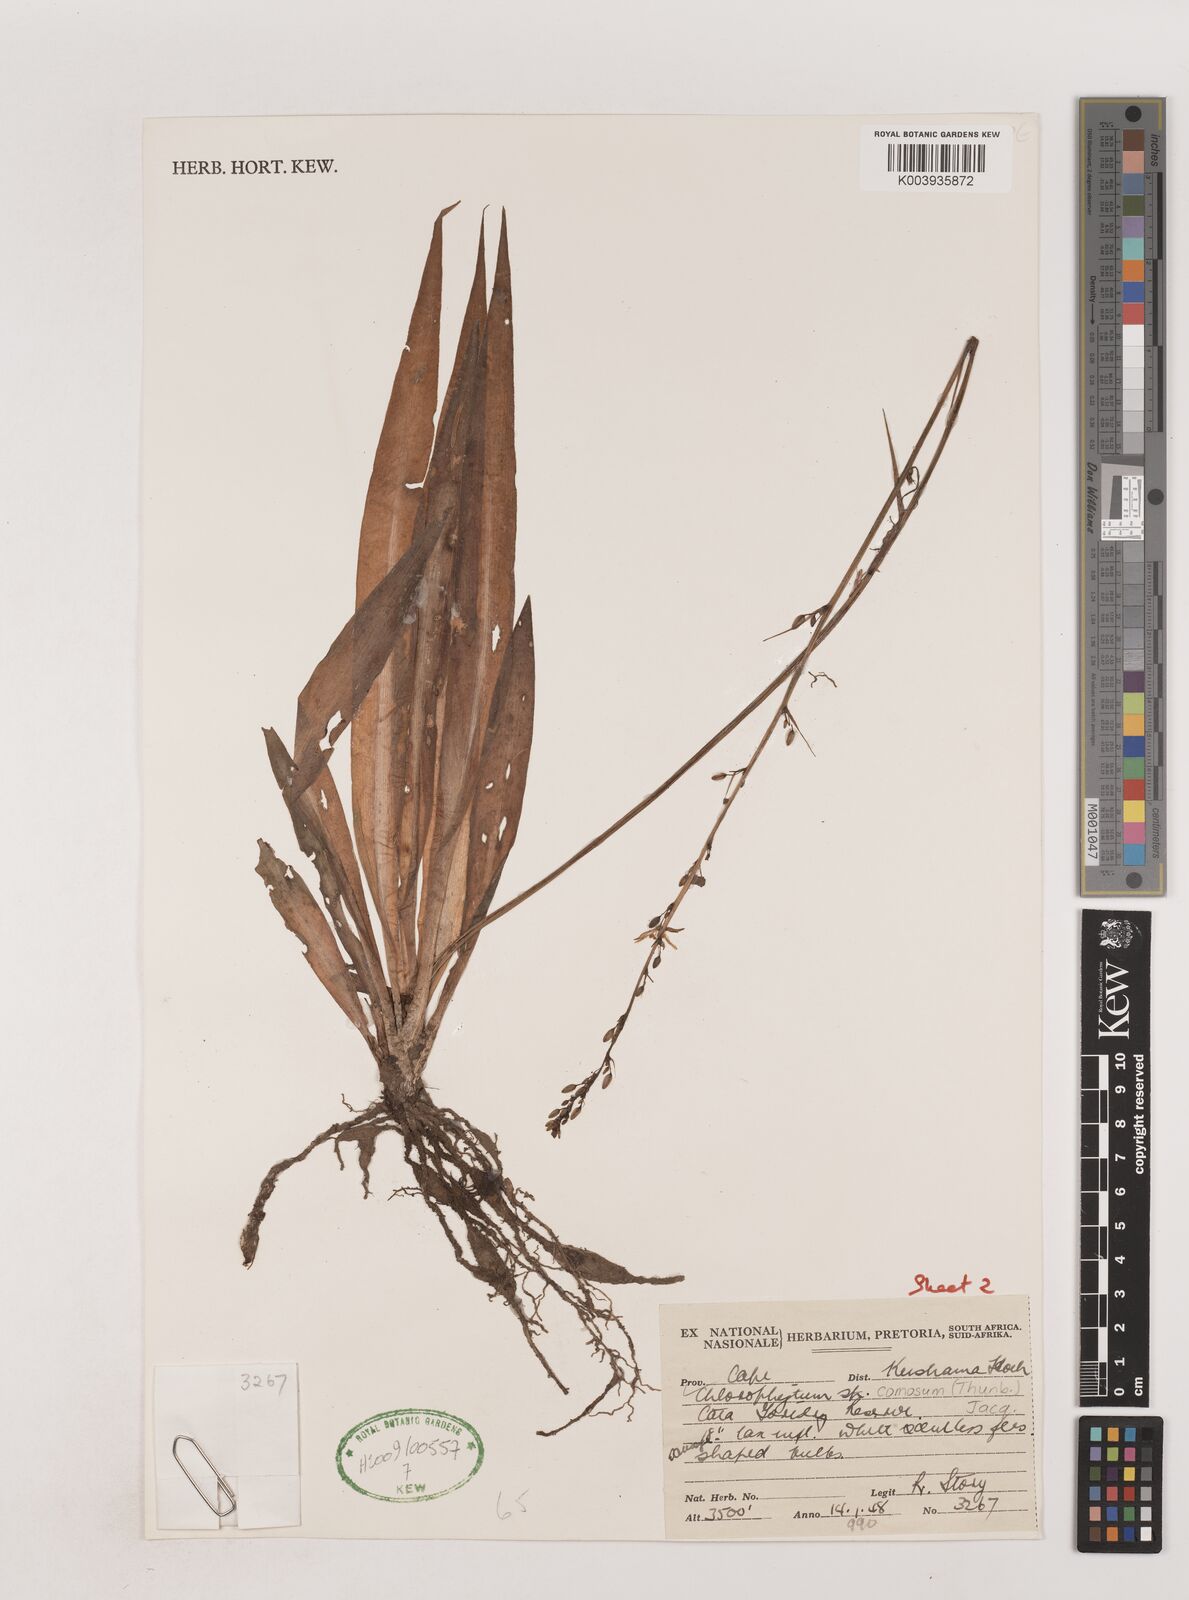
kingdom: Plantae
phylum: Tracheophyta
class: Liliopsida
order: Asparagales
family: Asparagaceae
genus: Chlorophytum
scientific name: Chlorophytum comosum
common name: Spider plant
